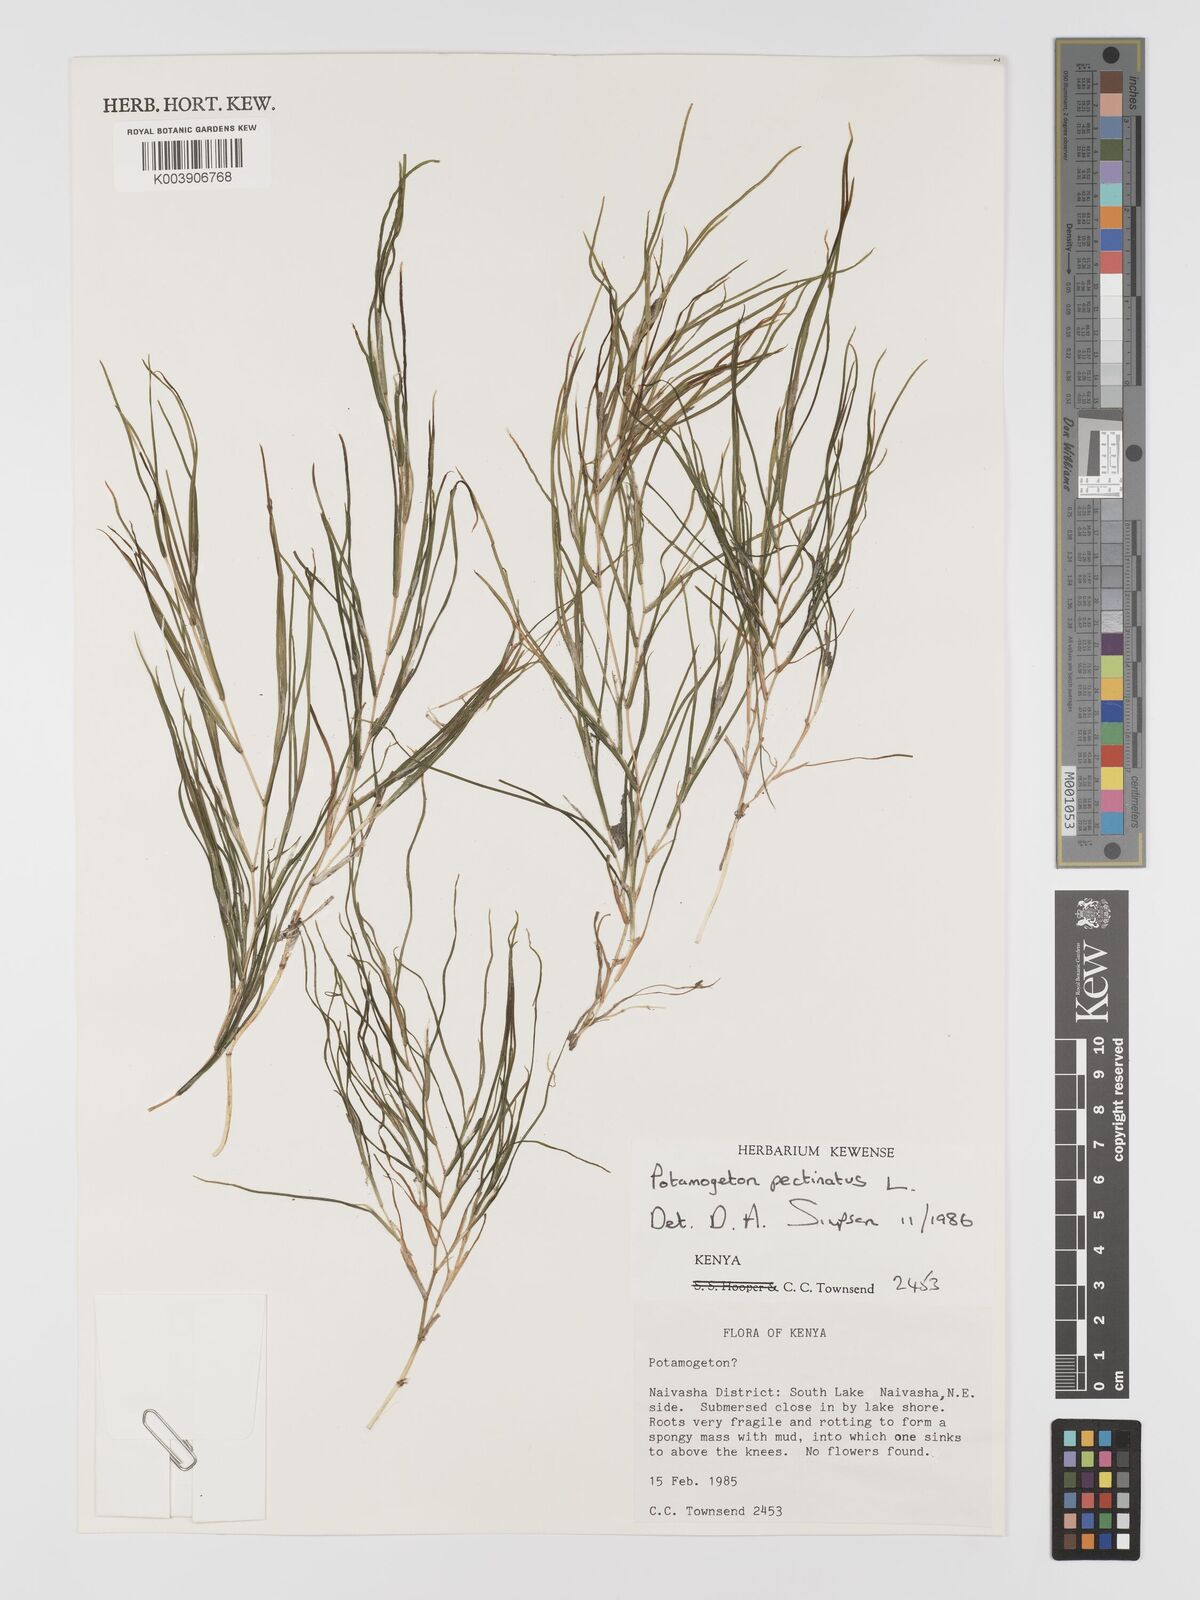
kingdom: Plantae
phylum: Tracheophyta
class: Liliopsida
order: Alismatales
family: Potamogetonaceae
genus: Stuckenia
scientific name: Stuckenia pectinata
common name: Sago pondweed
